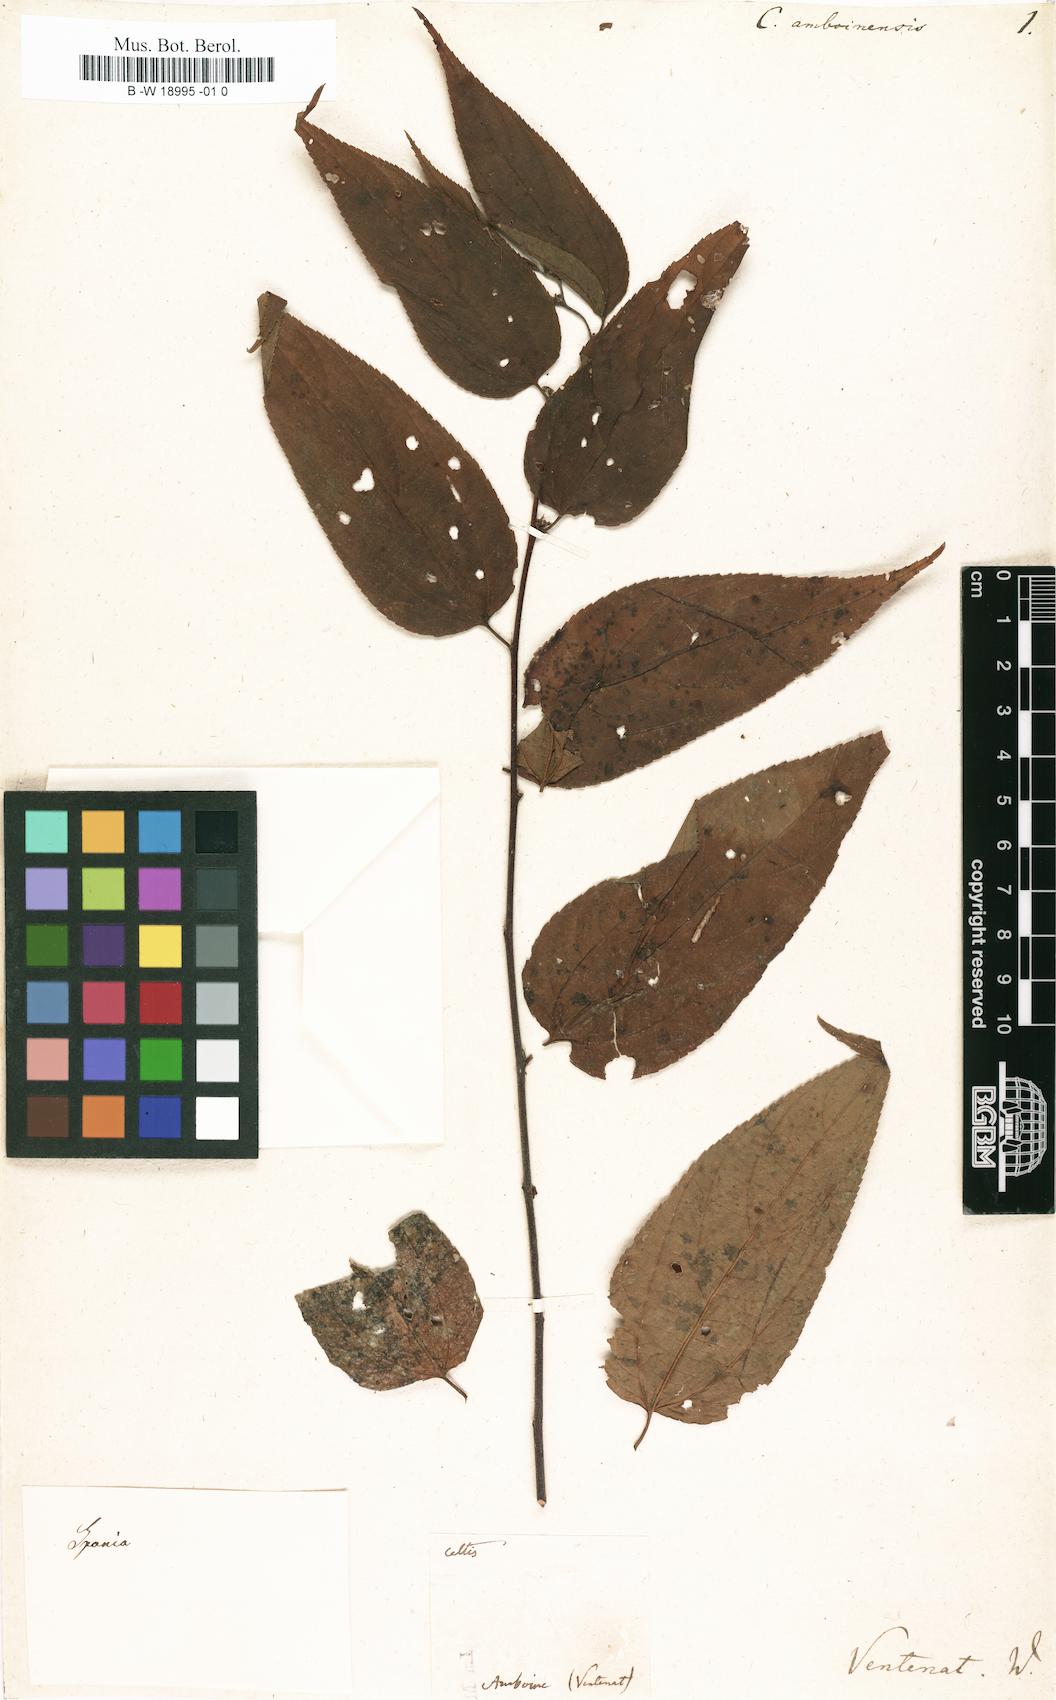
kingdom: Plantae
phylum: Tracheophyta
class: Magnoliopsida
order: Rosales
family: Cannabaceae
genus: Trema
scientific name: Trema tomentosum
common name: Peach-leaf-poisonbush
